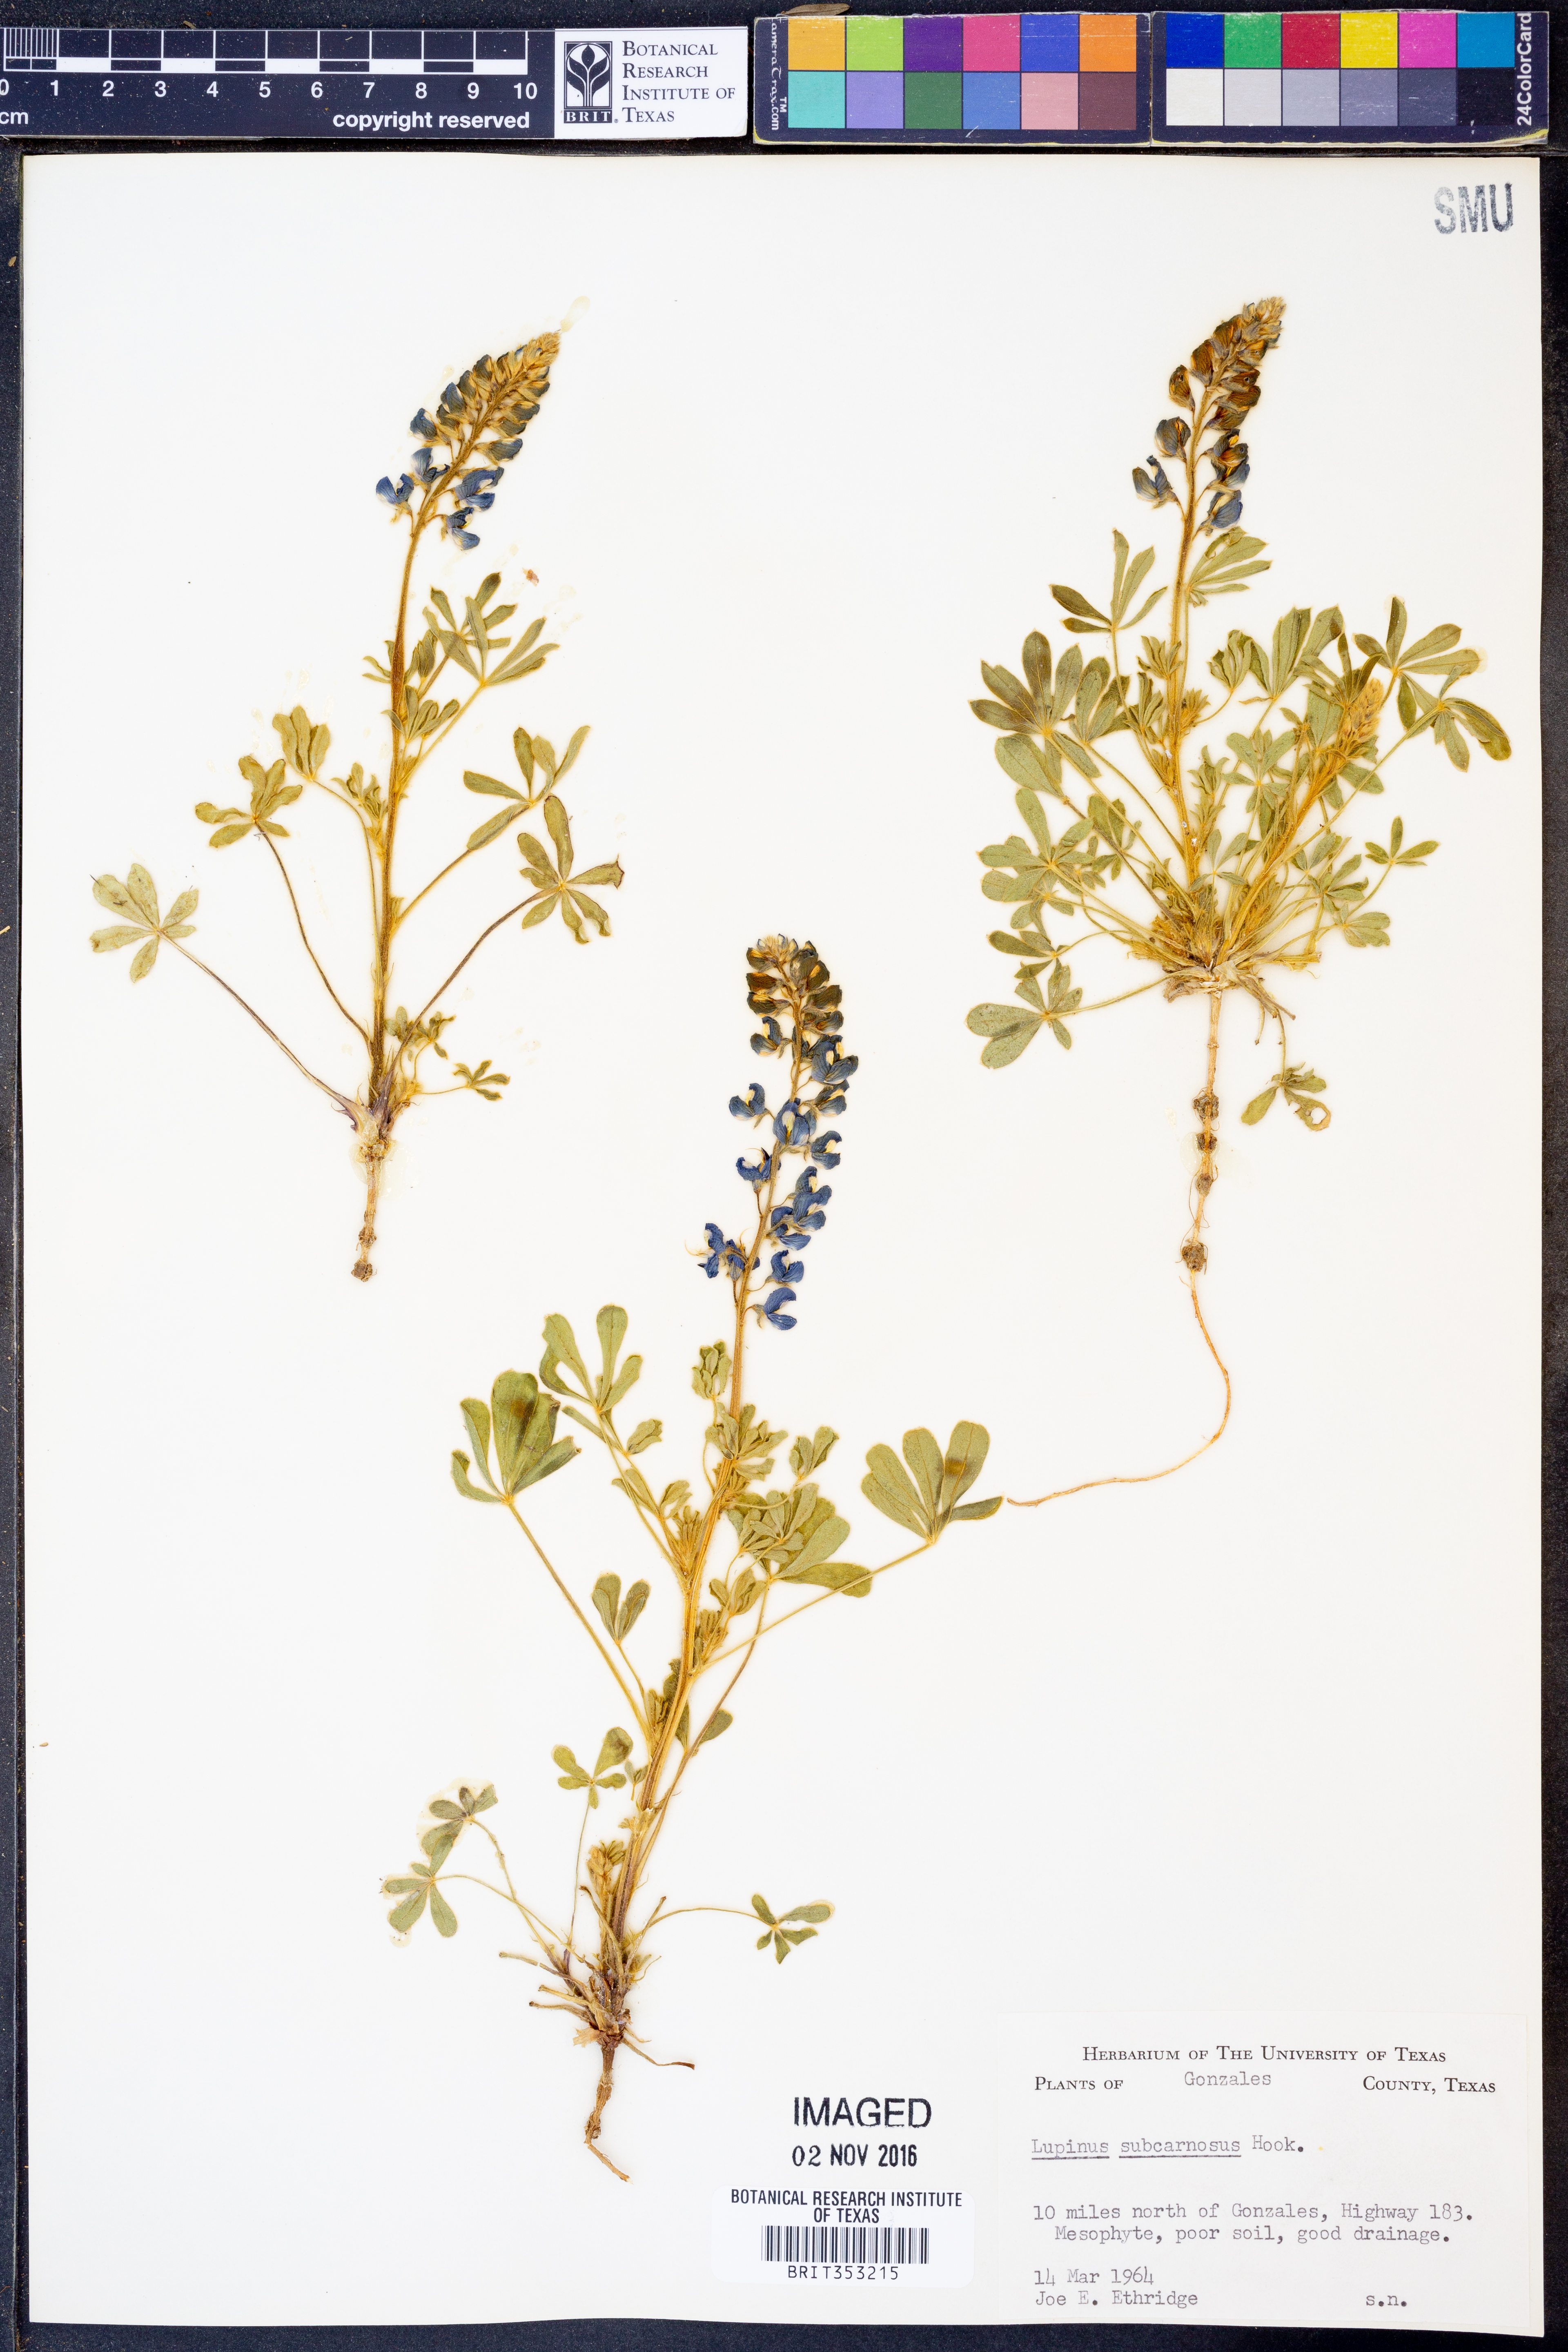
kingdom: Plantae
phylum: Tracheophyta
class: Magnoliopsida
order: Fabales
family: Fabaceae
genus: Lupinus
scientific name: Lupinus subcarnosus
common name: Texas bluebonnet
